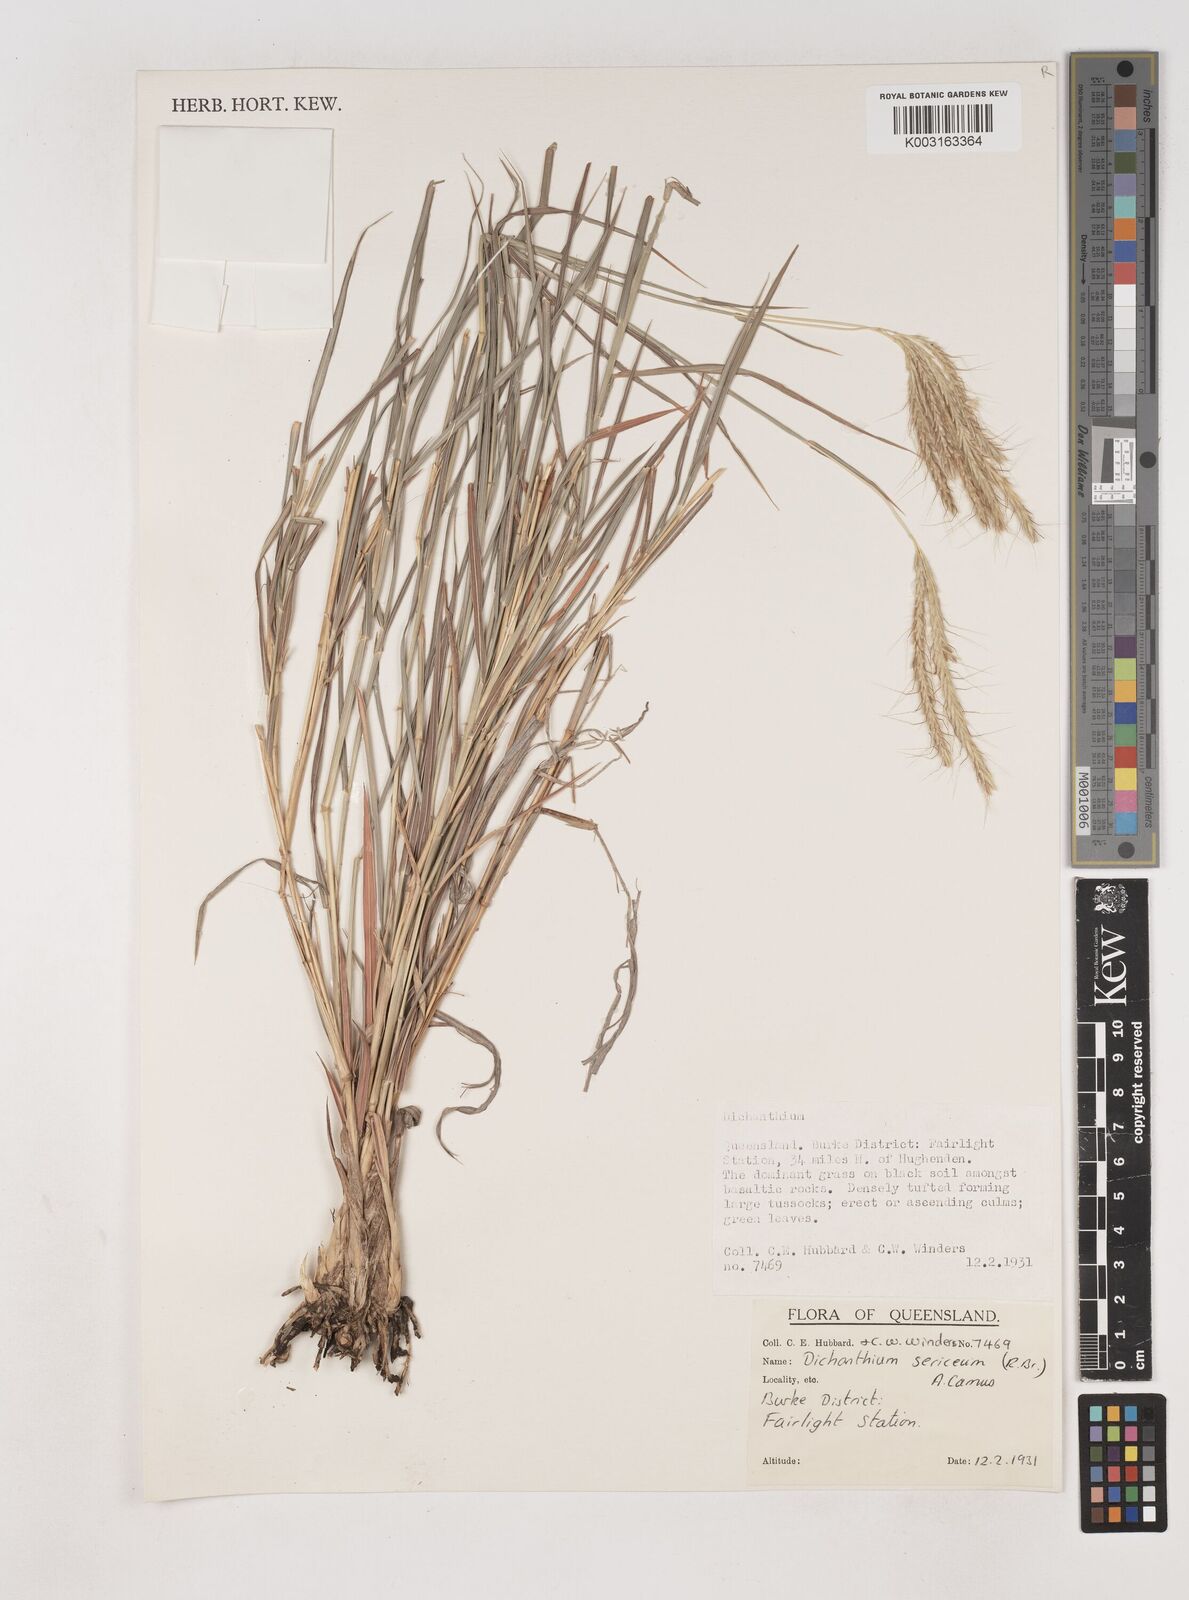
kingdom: Plantae
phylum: Tracheophyta
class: Liliopsida
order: Poales
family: Poaceae
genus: Dichanthium
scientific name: Dichanthium sericeum
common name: Silky bluestem
